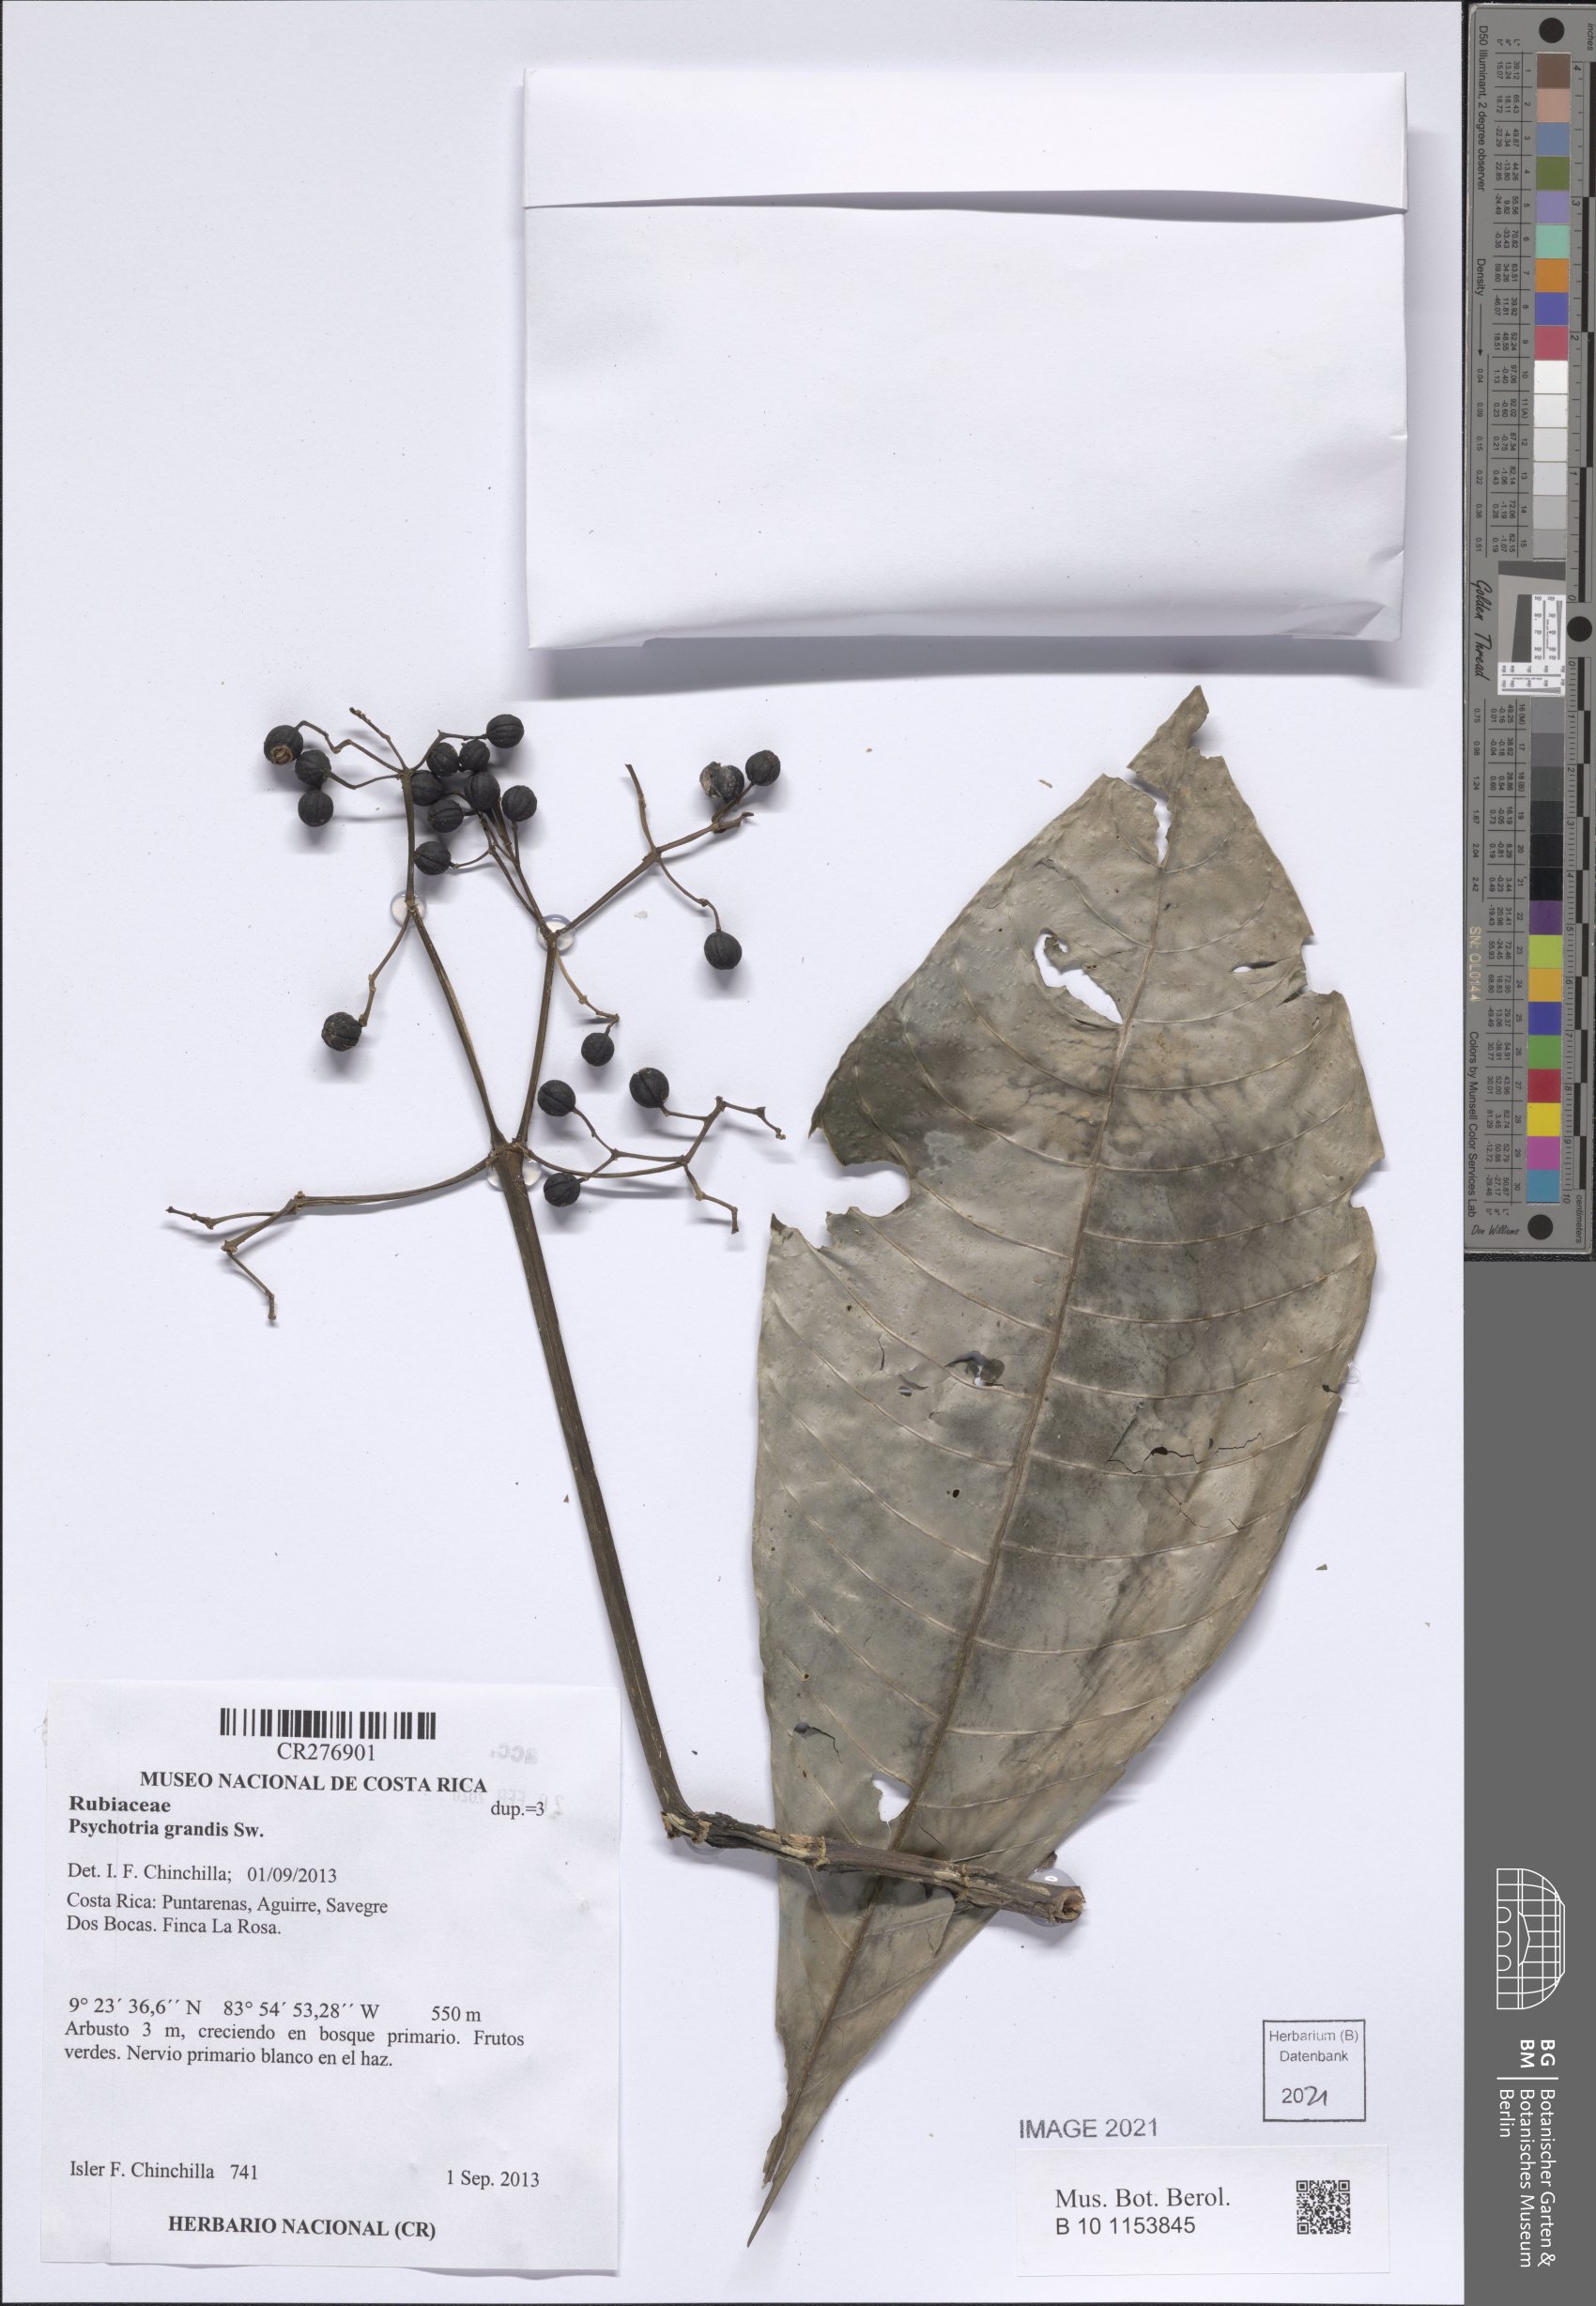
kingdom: Plantae
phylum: Tracheophyta
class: Magnoliopsida
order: Gentianales
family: Rubiaceae
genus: Psychotria
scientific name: Psychotria grandis
